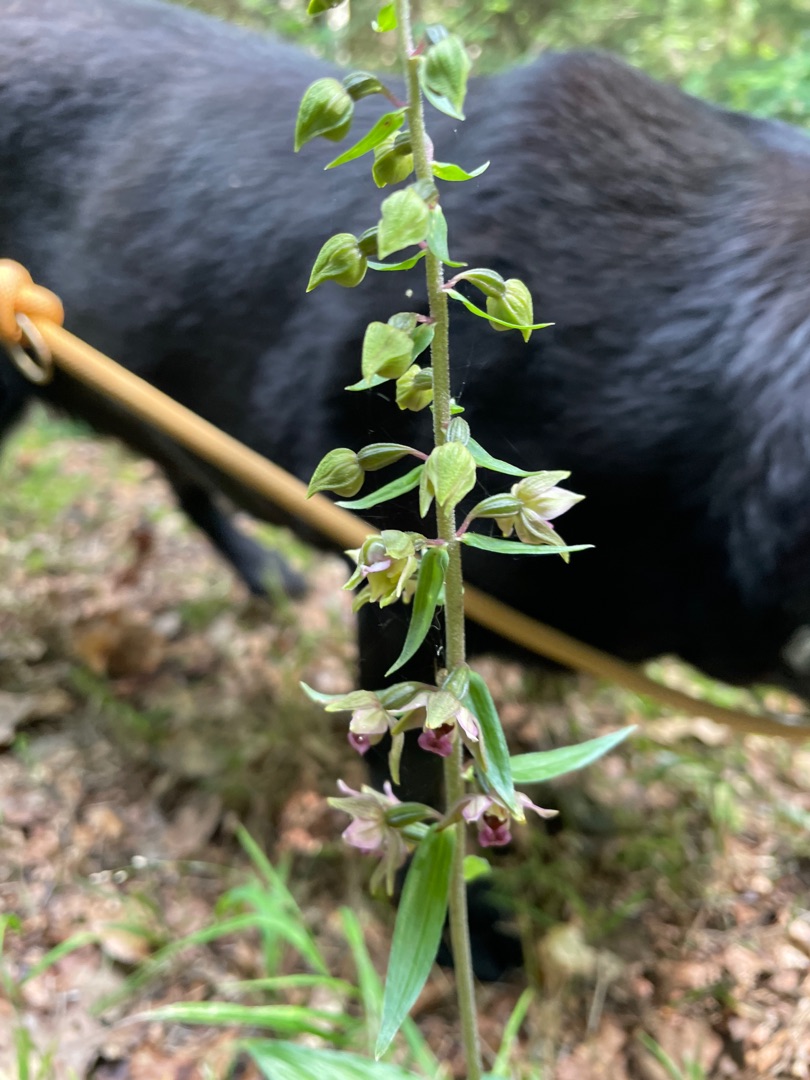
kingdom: Plantae
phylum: Tracheophyta
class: Liliopsida
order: Asparagales
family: Orchidaceae
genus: Epipactis
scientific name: Epipactis helleborine
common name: Skov-hullæbe
